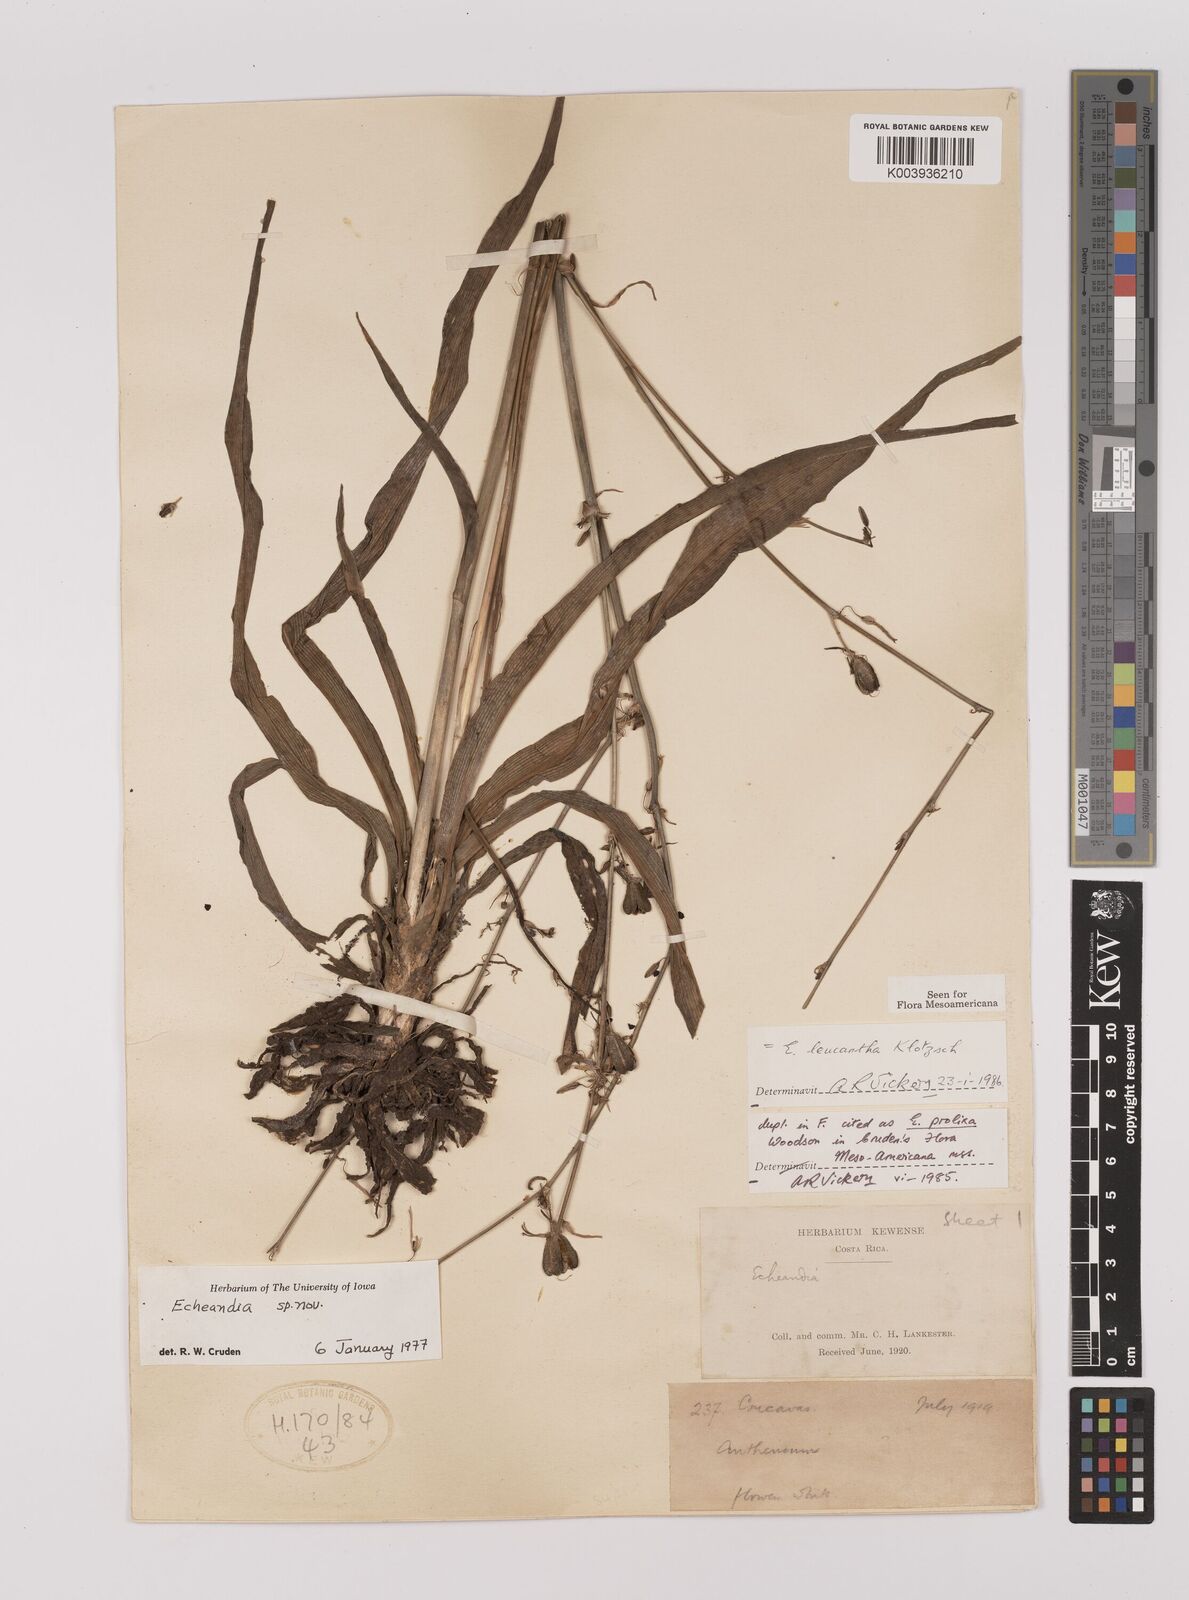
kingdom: Plantae
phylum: Tracheophyta
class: Liliopsida
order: Asparagales
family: Asparagaceae
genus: Echeandia
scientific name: Echeandia leucantha
